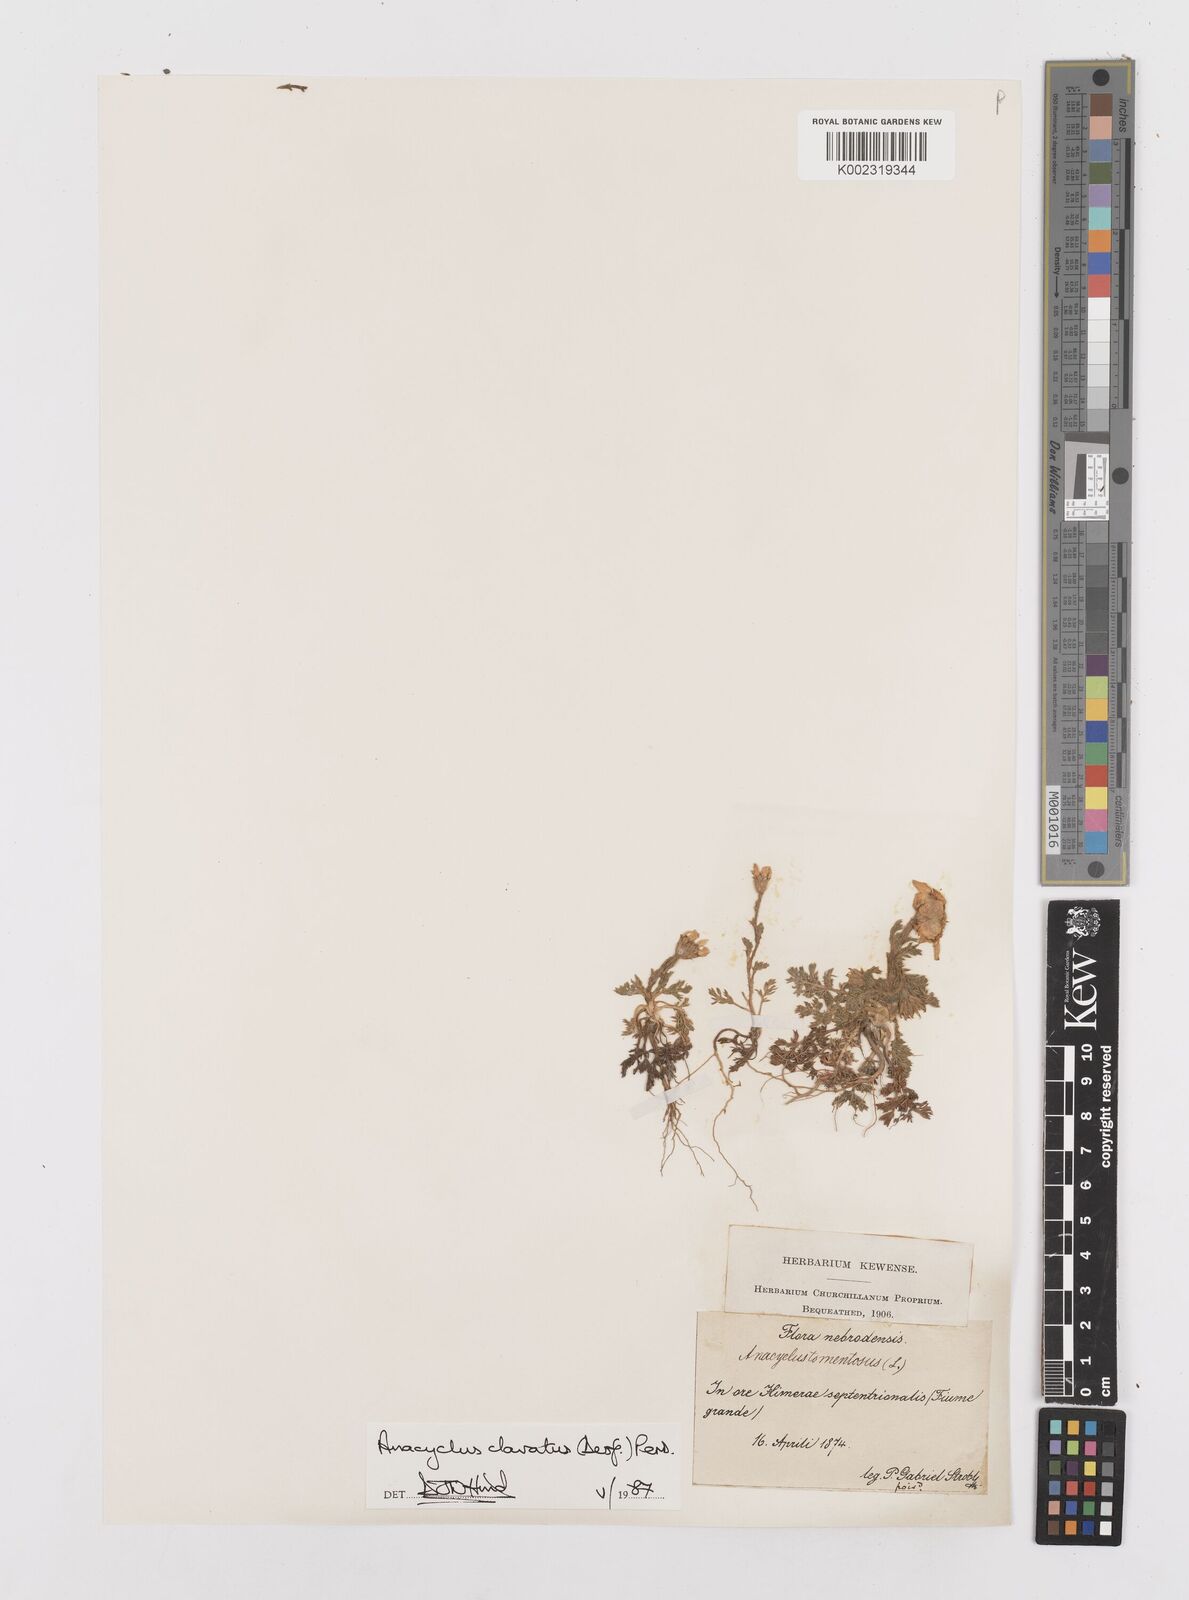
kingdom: Plantae
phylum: Tracheophyta
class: Magnoliopsida
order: Asterales
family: Asteraceae
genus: Anacyclus
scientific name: Anacyclus clavatus
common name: Whitebuttons
